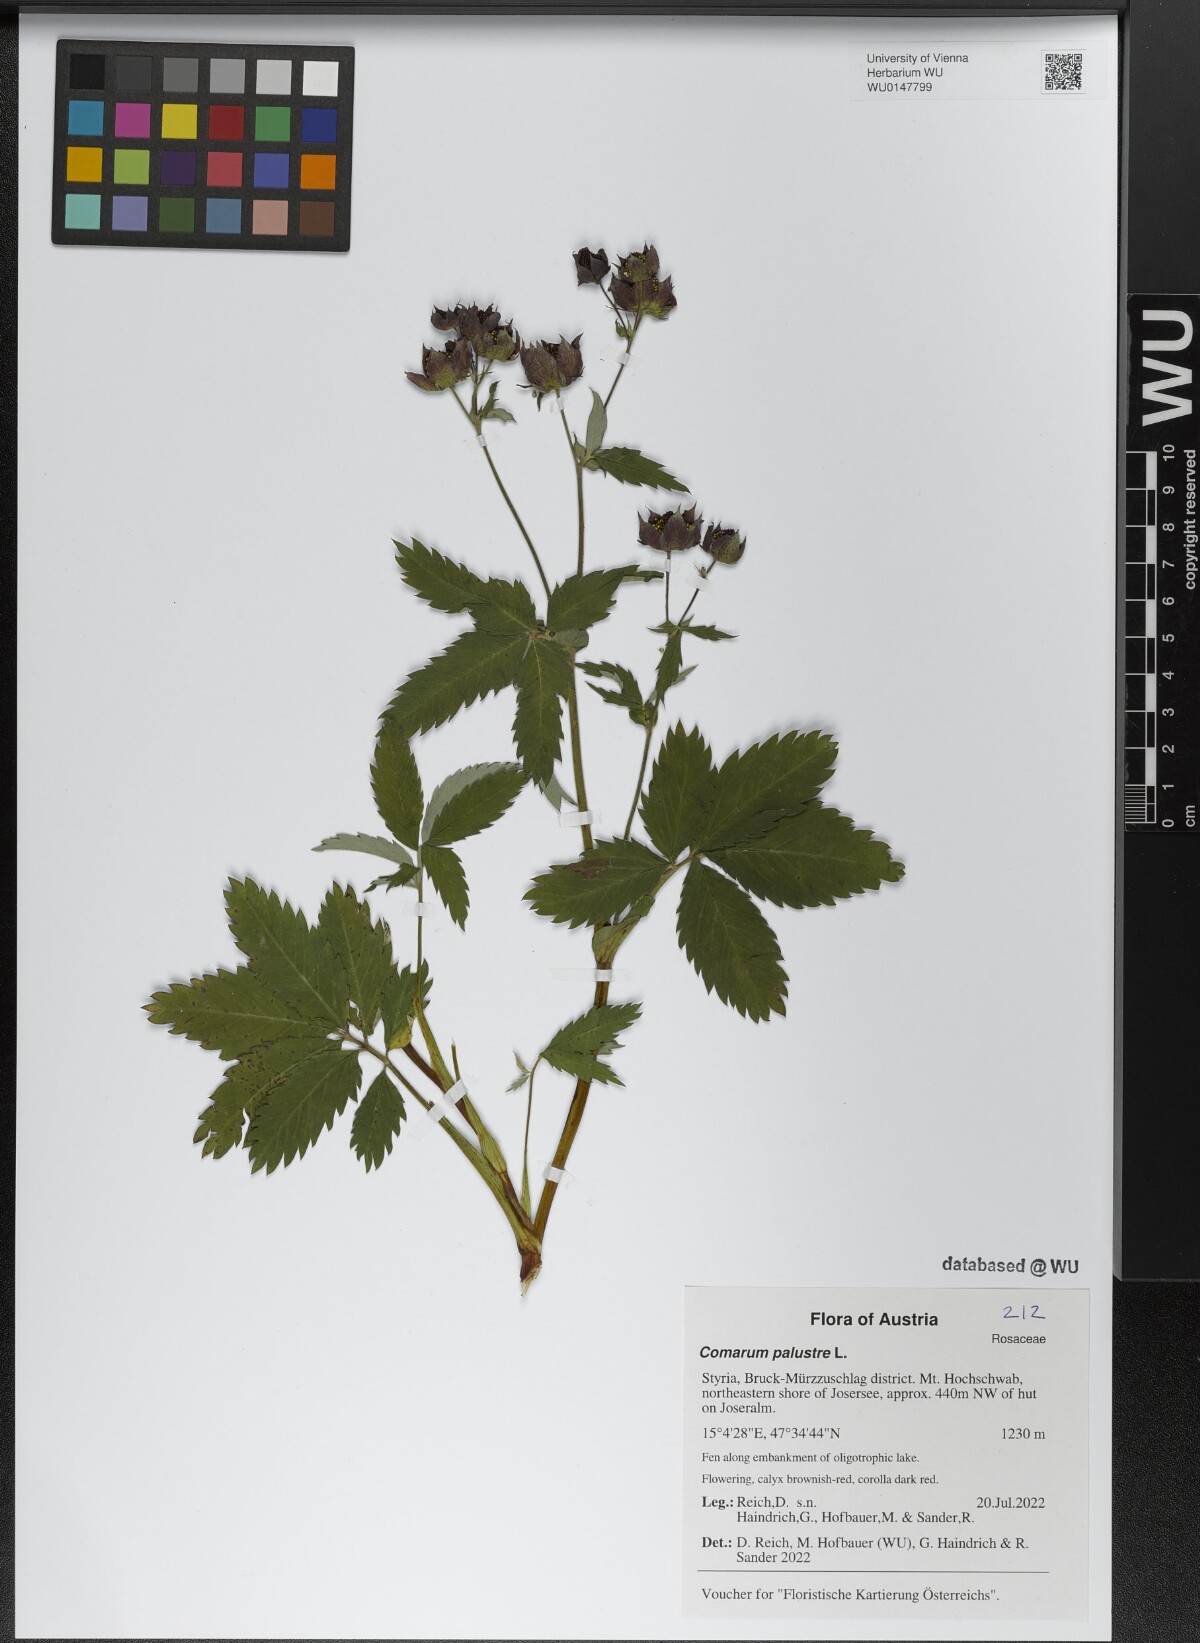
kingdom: Plantae
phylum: Tracheophyta
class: Magnoliopsida
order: Rosales
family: Rosaceae
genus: Comarum
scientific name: Comarum palustre
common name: Marsh cinquefoil
